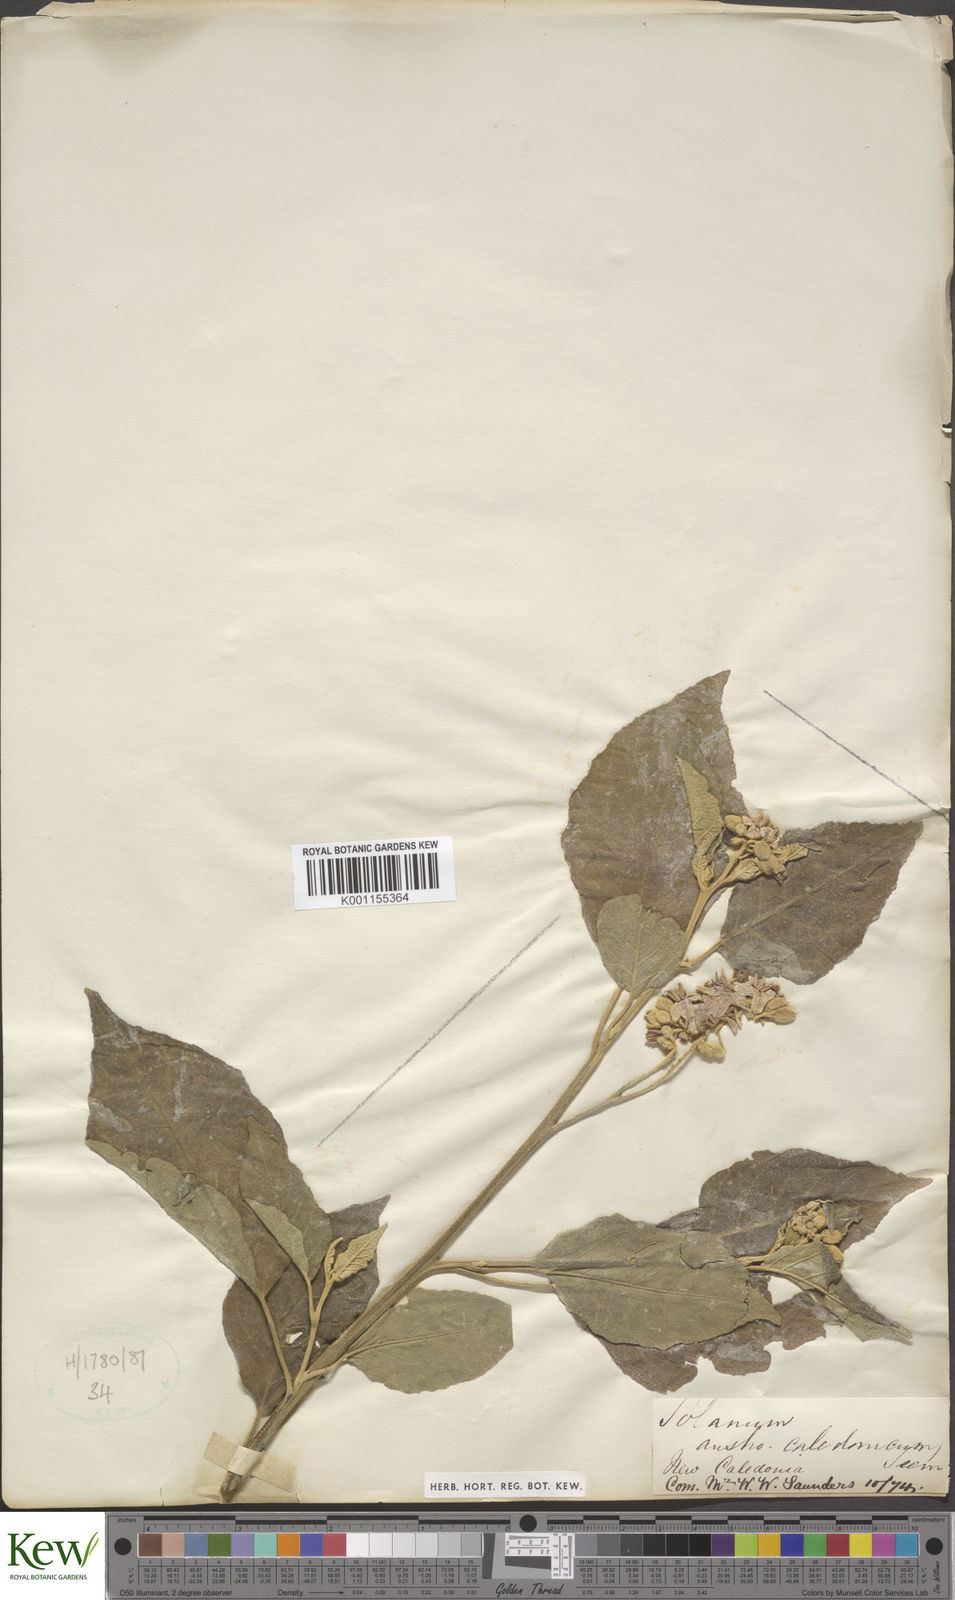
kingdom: Plantae
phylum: Tracheophyta
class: Magnoliopsida
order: Solanales
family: Solanaceae
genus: Solanum
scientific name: Solanum austrocaledonicum
